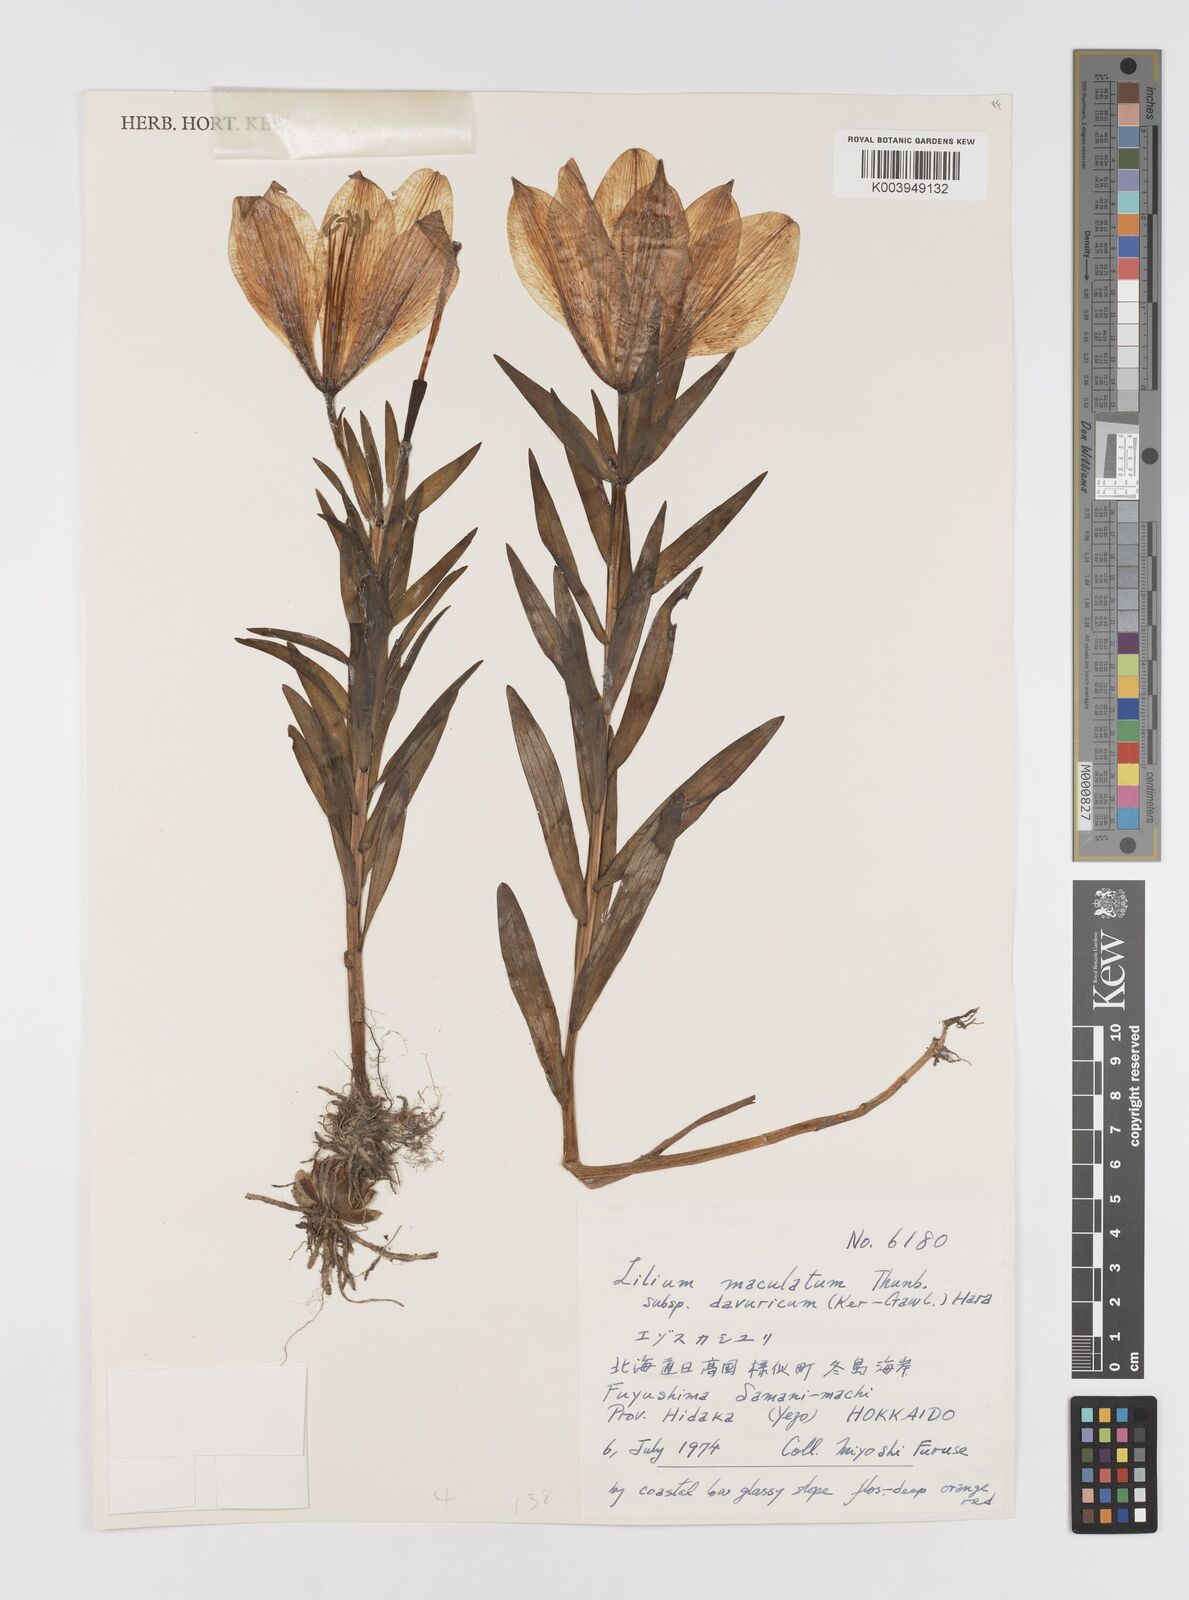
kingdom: Plantae
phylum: Tracheophyta
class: Liliopsida
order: Liliales
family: Liliaceae
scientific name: Liliaceae
